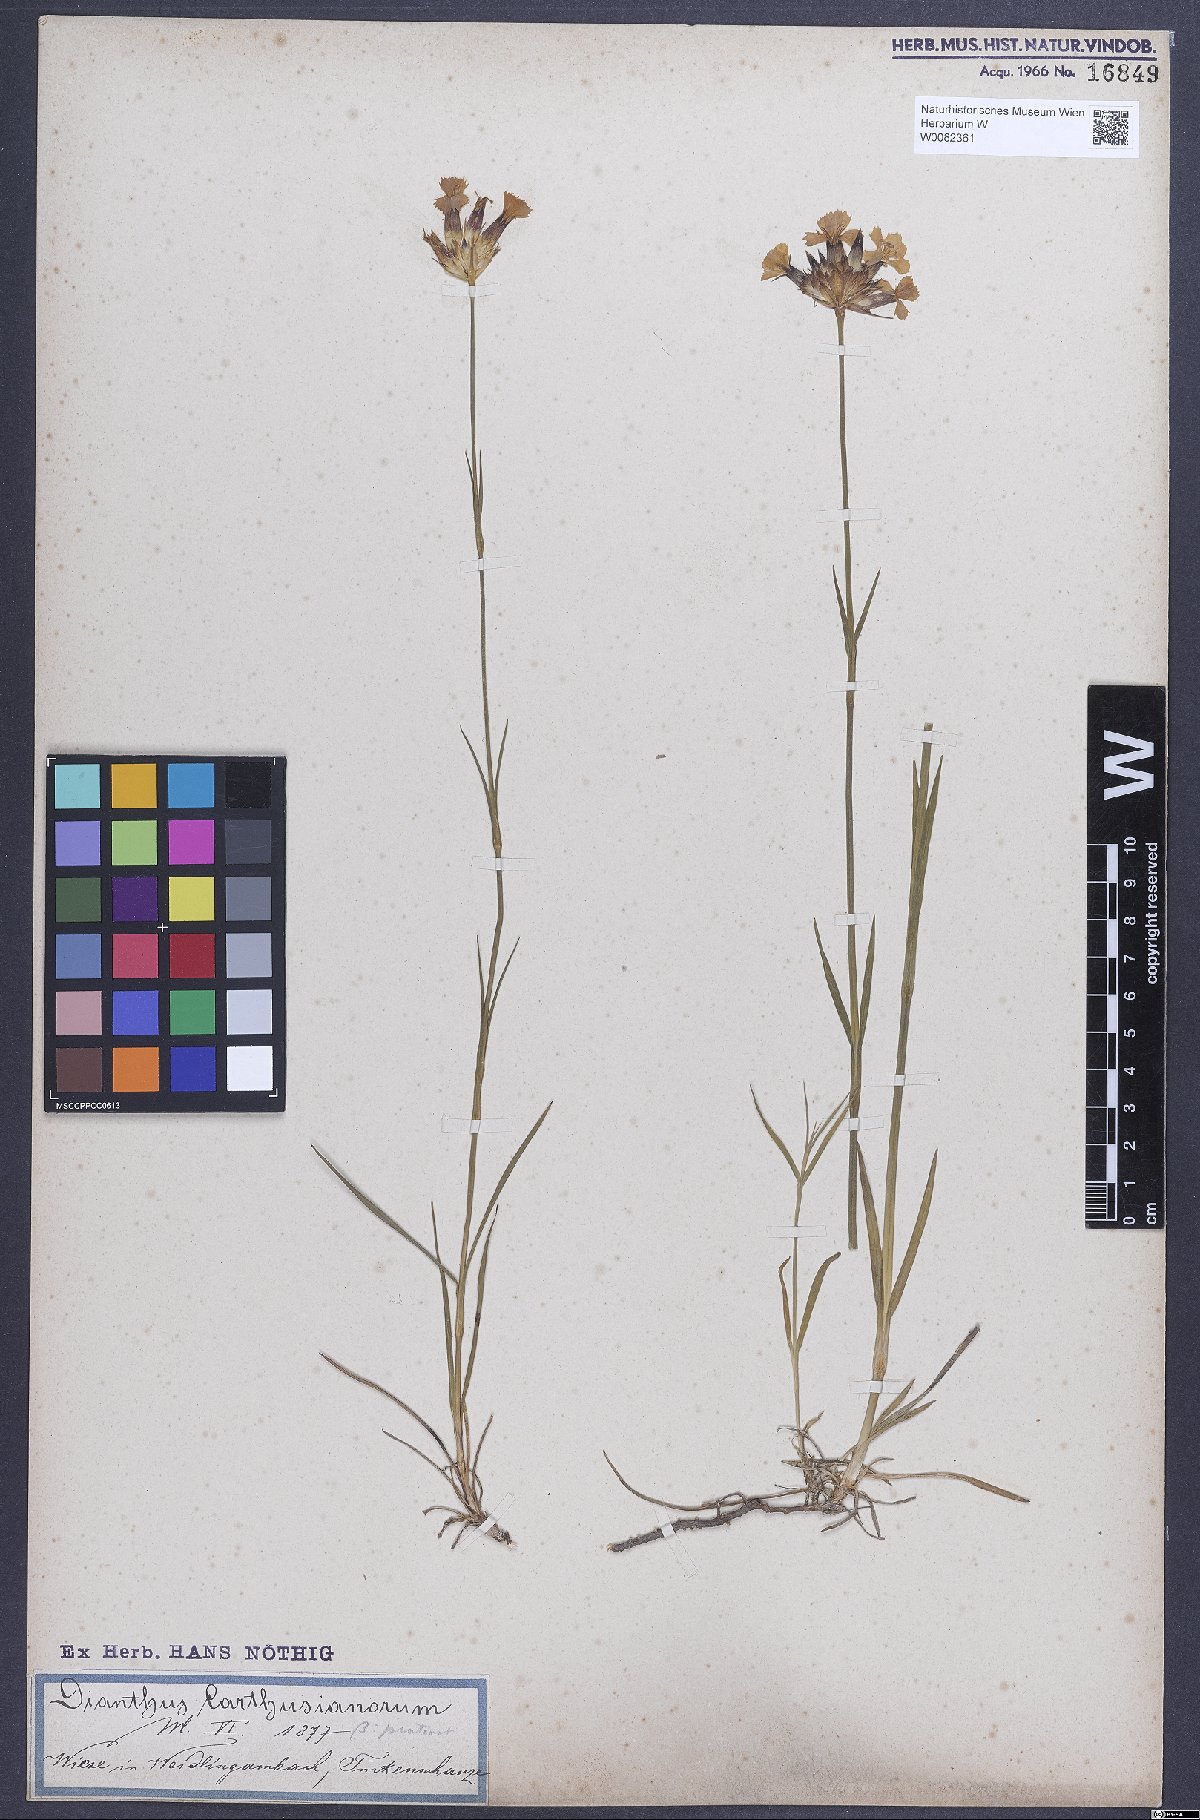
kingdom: Plantae
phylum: Tracheophyta
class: Magnoliopsida
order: Caryophyllales
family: Caryophyllaceae
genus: Dianthus
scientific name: Dianthus carthusianorum
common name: Carthusian pink
